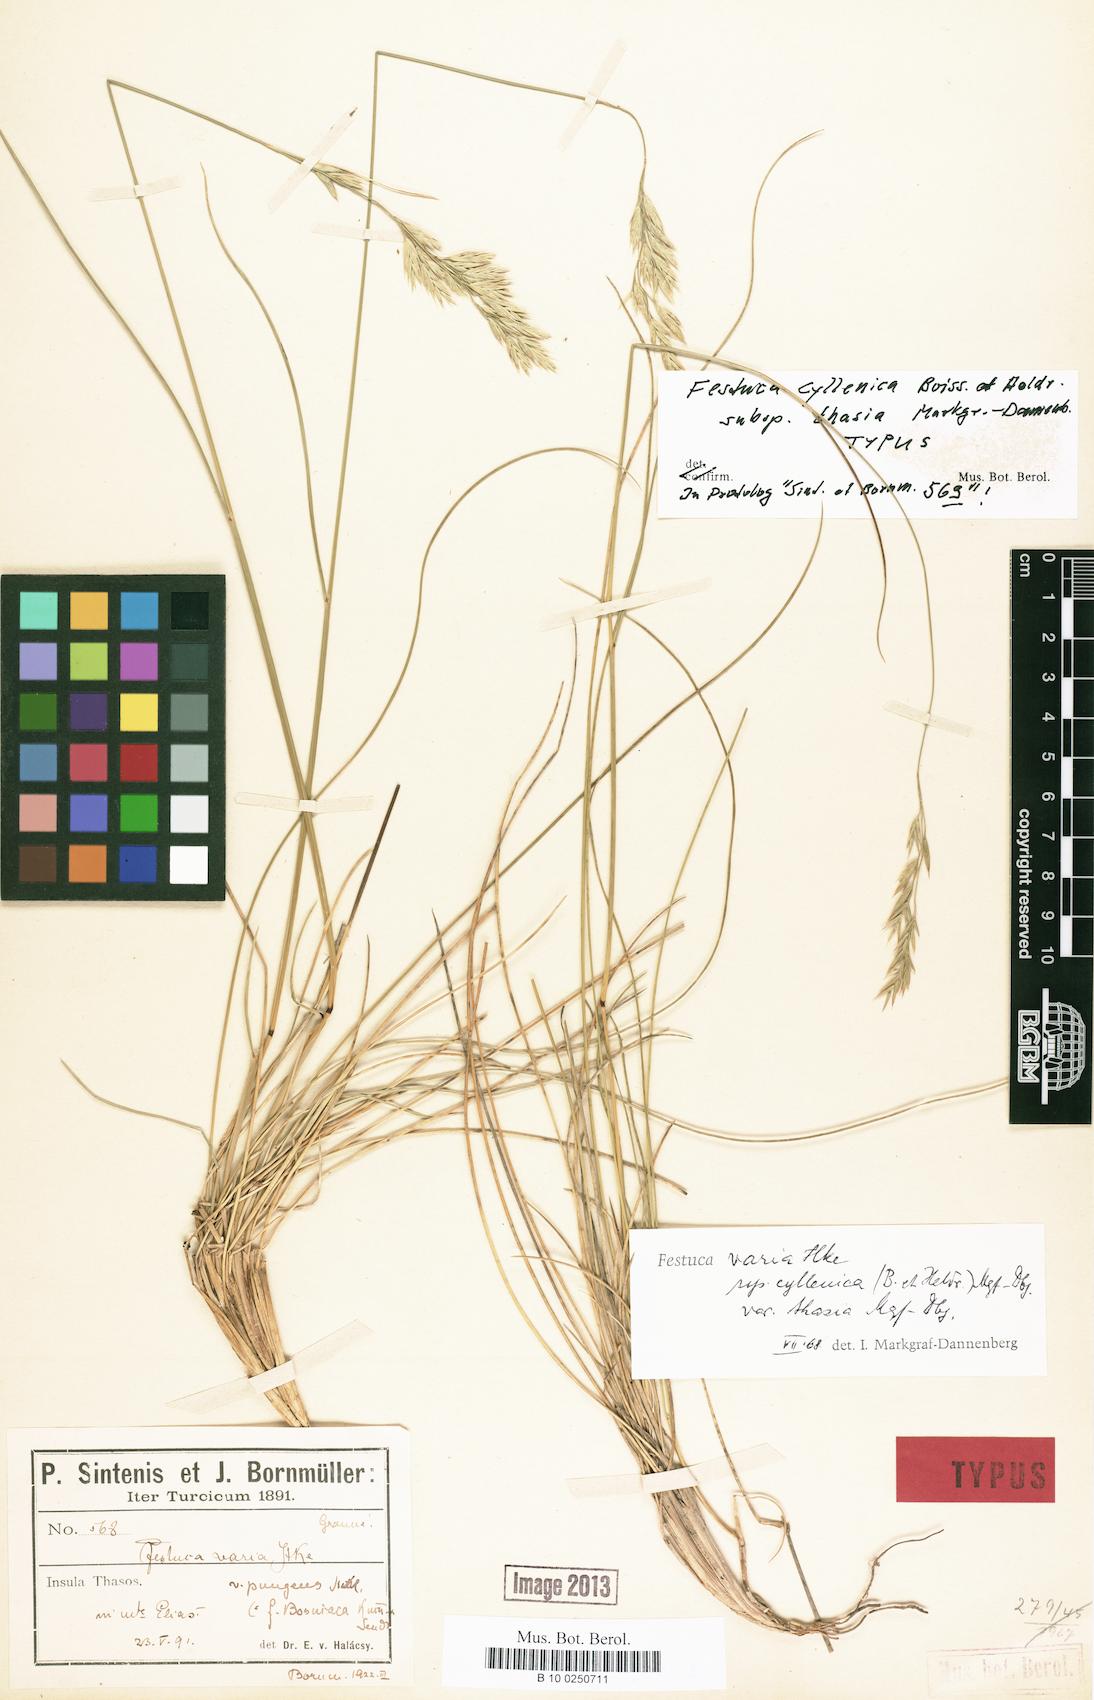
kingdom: Plantae
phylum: Tracheophyta
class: Liliopsida
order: Poales
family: Poaceae
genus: Festuca
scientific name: Festuca cyllenica
